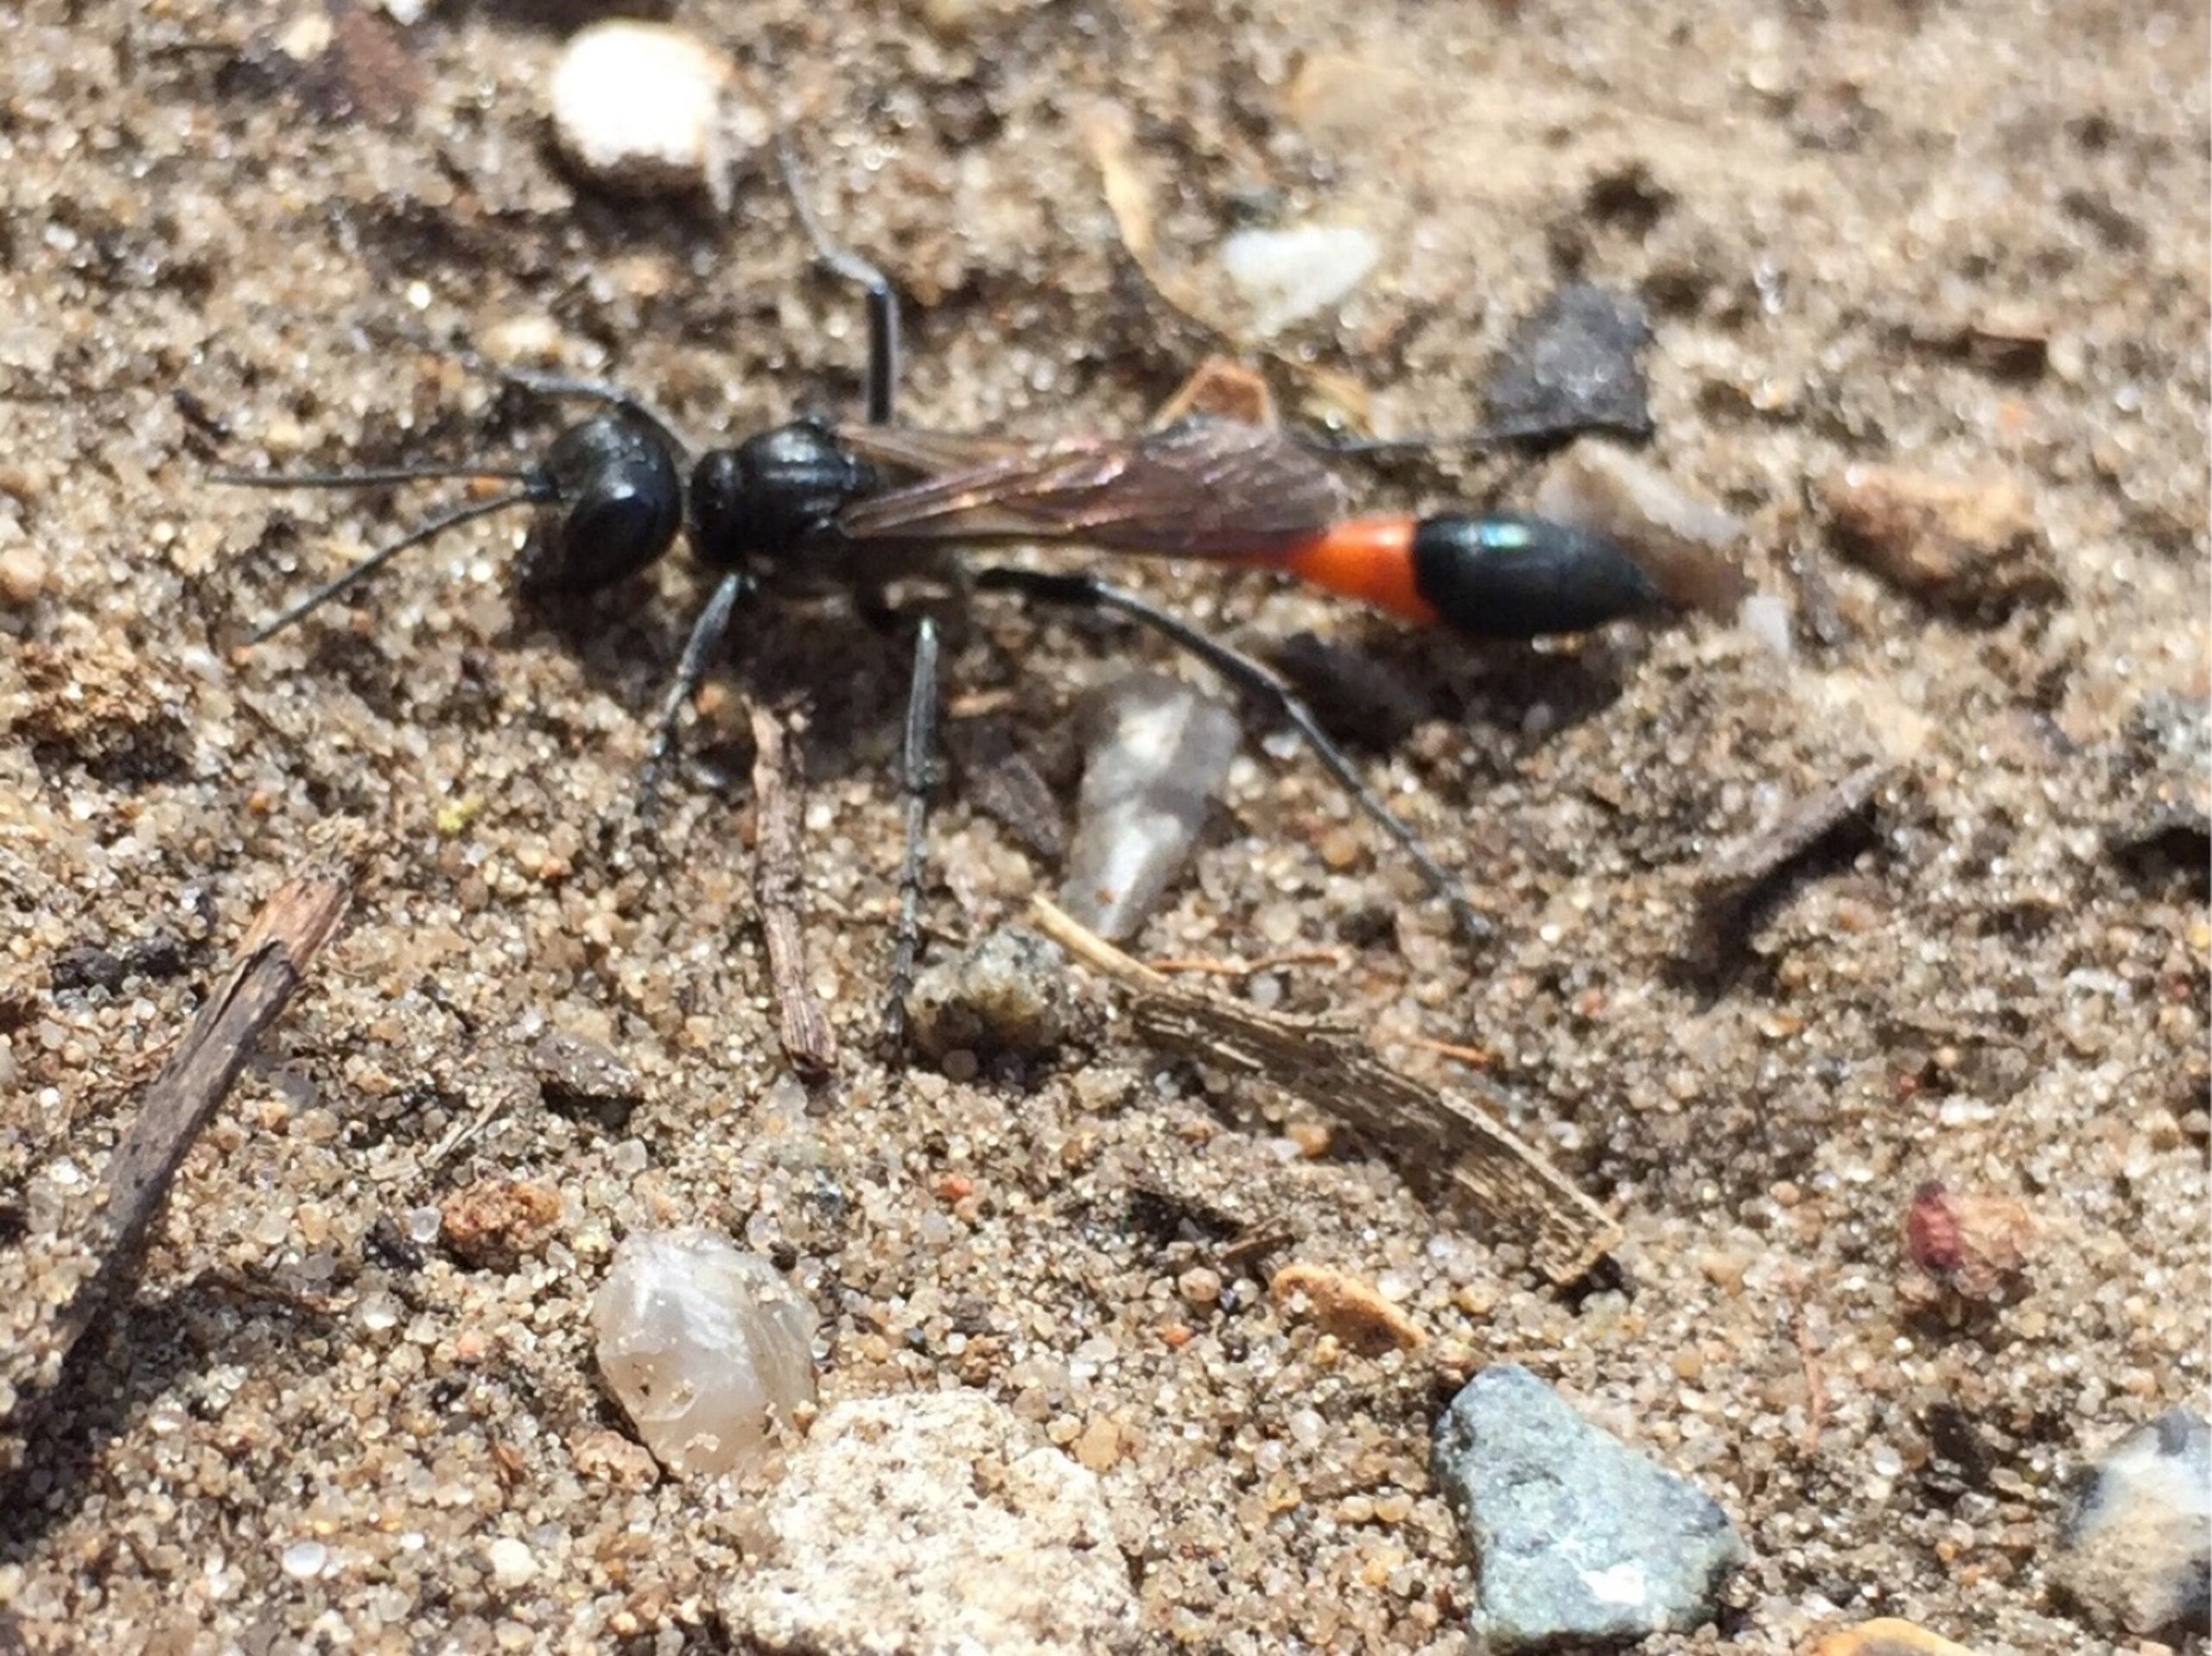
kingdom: Animalia
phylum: Arthropoda
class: Insecta
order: Hymenoptera
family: Sphecidae
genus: Ammophila
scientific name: Ammophila sabulosa
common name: Almindelig sandhveps
